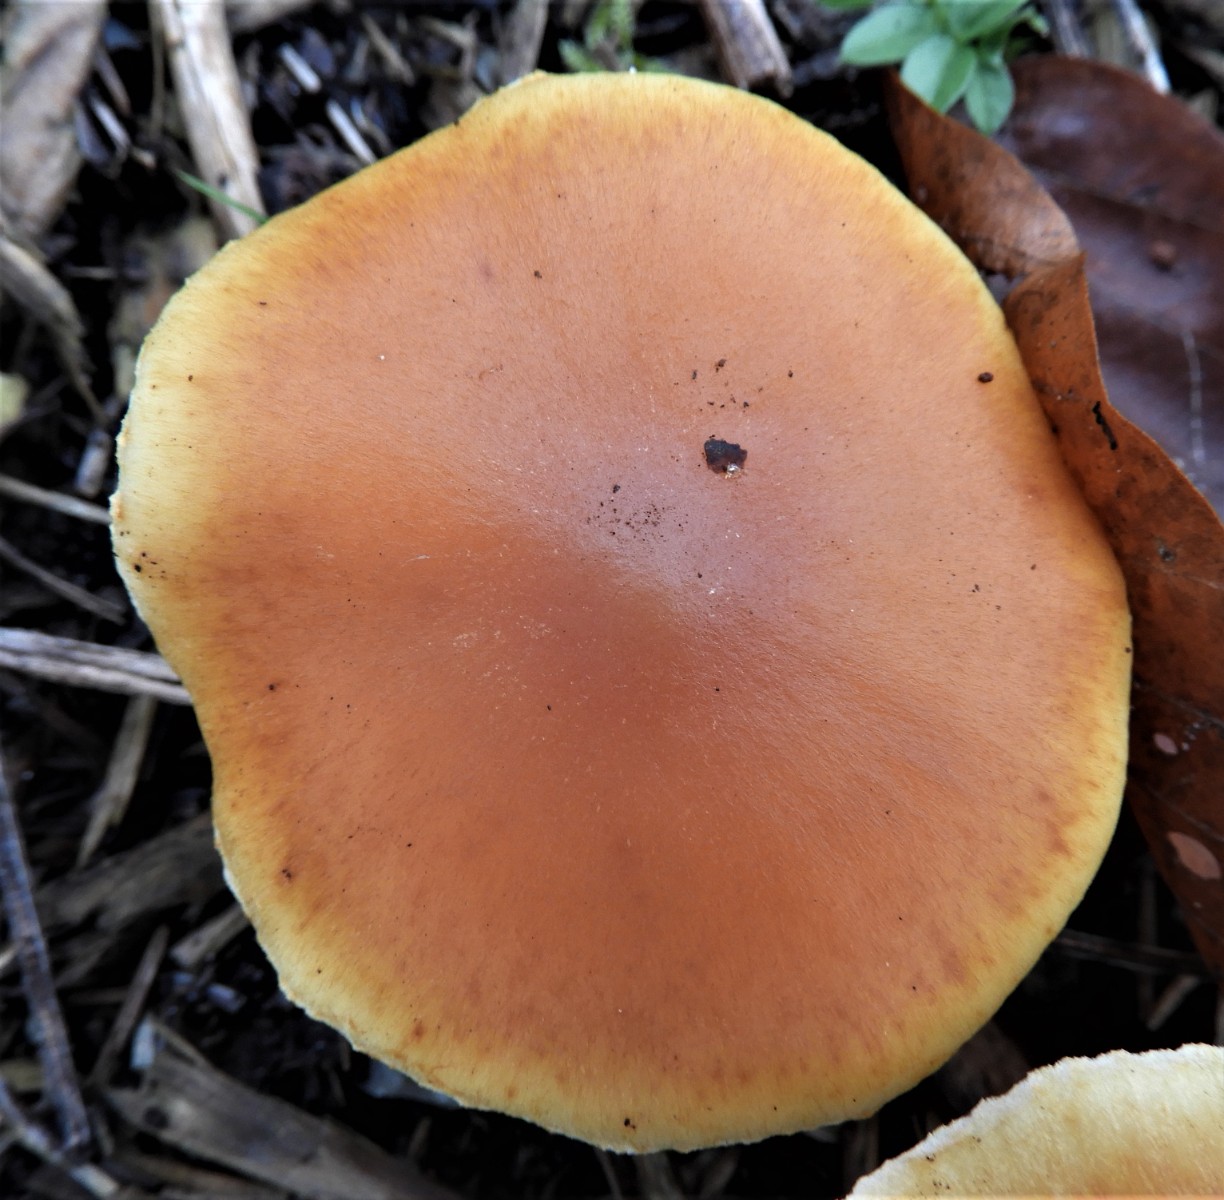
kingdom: Fungi
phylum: Basidiomycota
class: Agaricomycetes
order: Agaricales
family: Hymenogastraceae
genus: Gymnopilus
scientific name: Gymnopilus penetrans
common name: plettet flammehat
